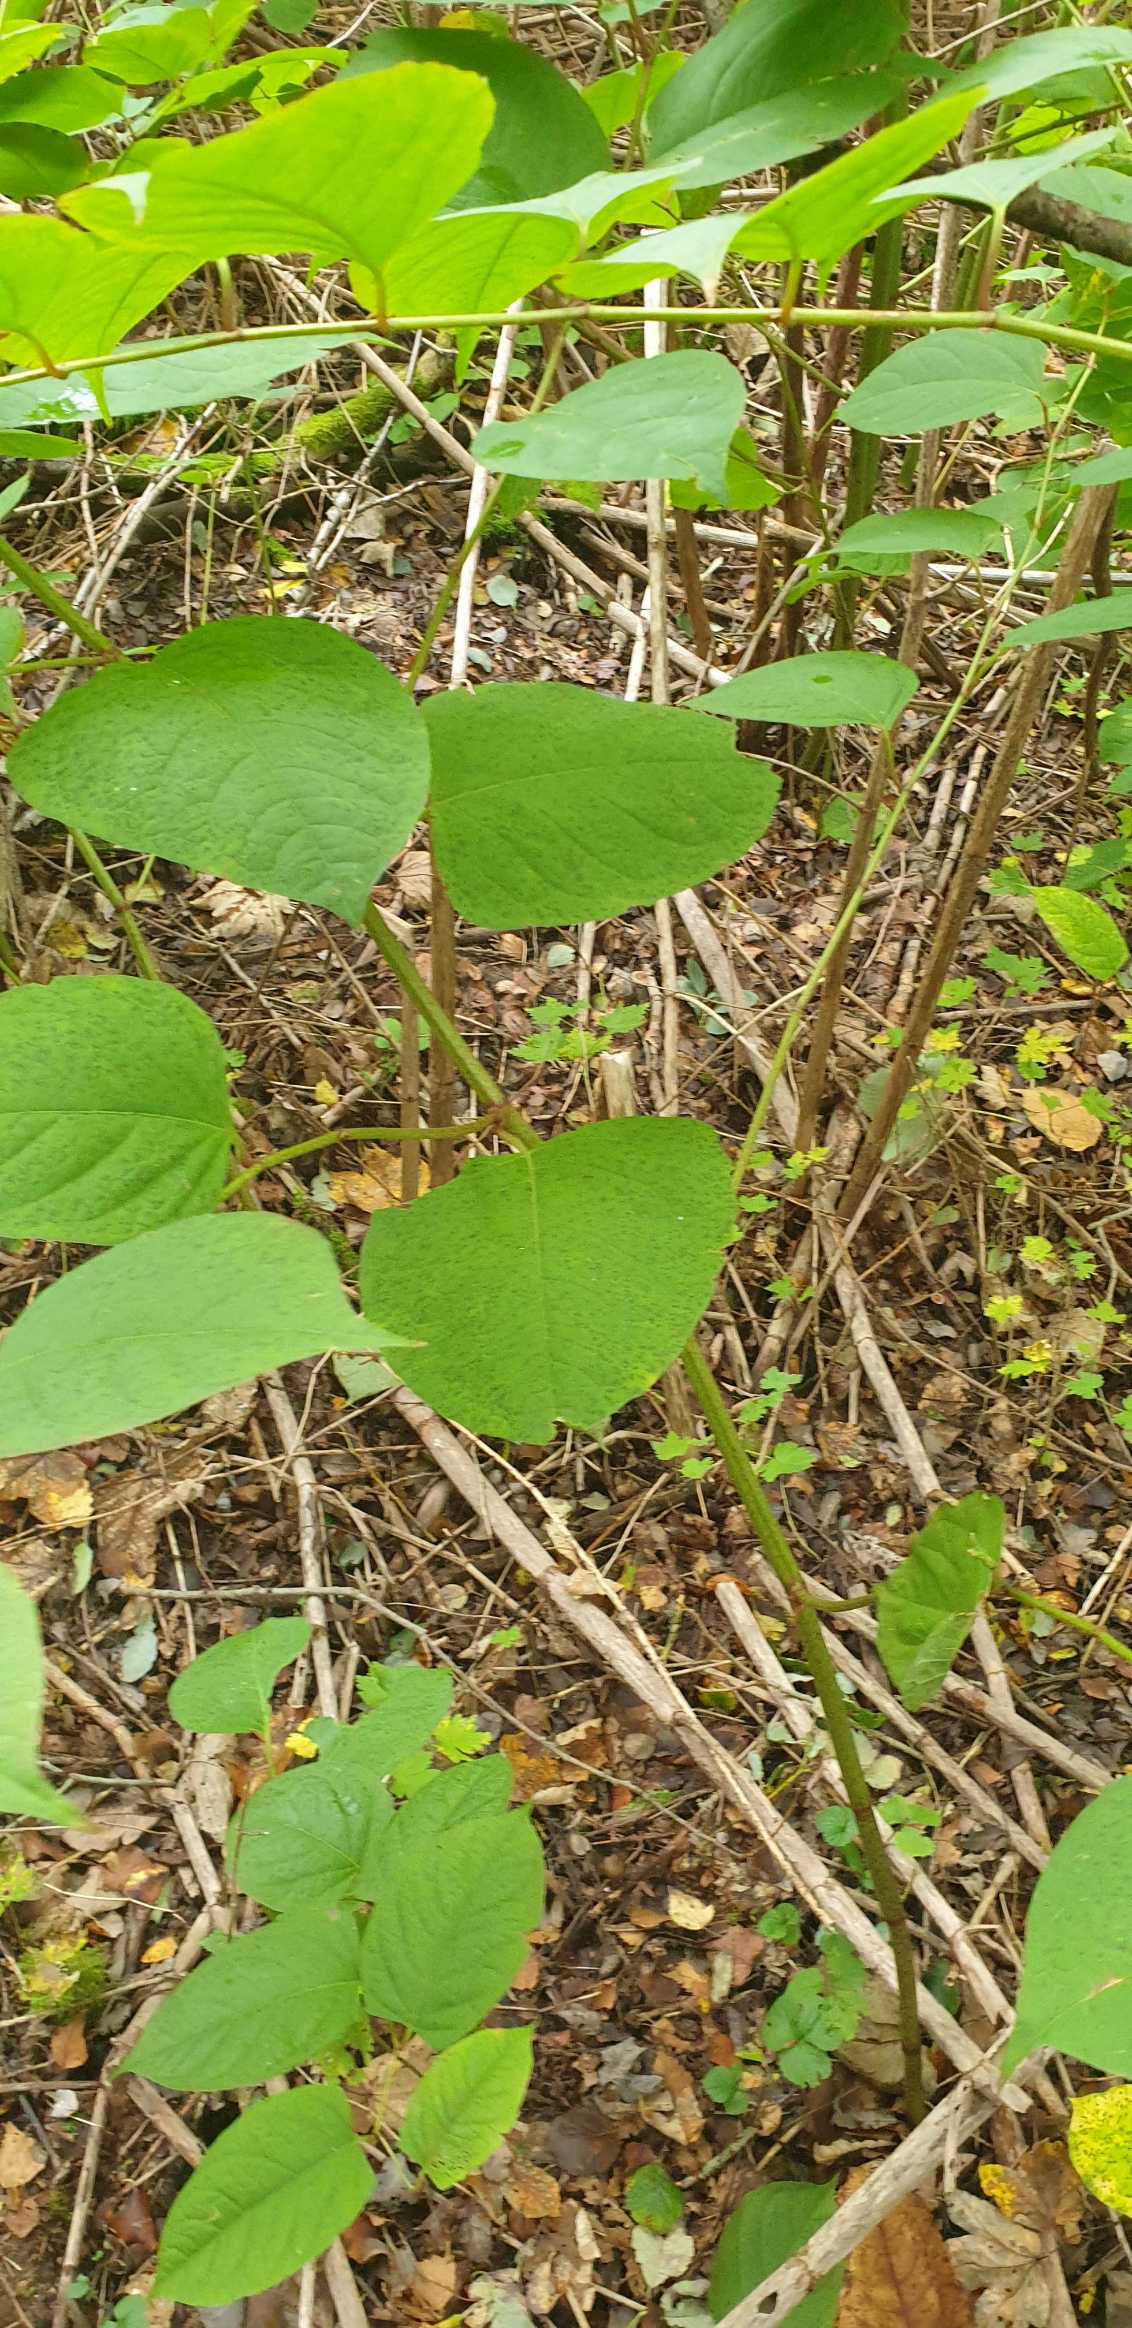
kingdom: Plantae
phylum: Tracheophyta
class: Magnoliopsida
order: Caryophyllales
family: Polygonaceae
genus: Reynoutria
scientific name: Reynoutria japonica
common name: Japan-pileurt
